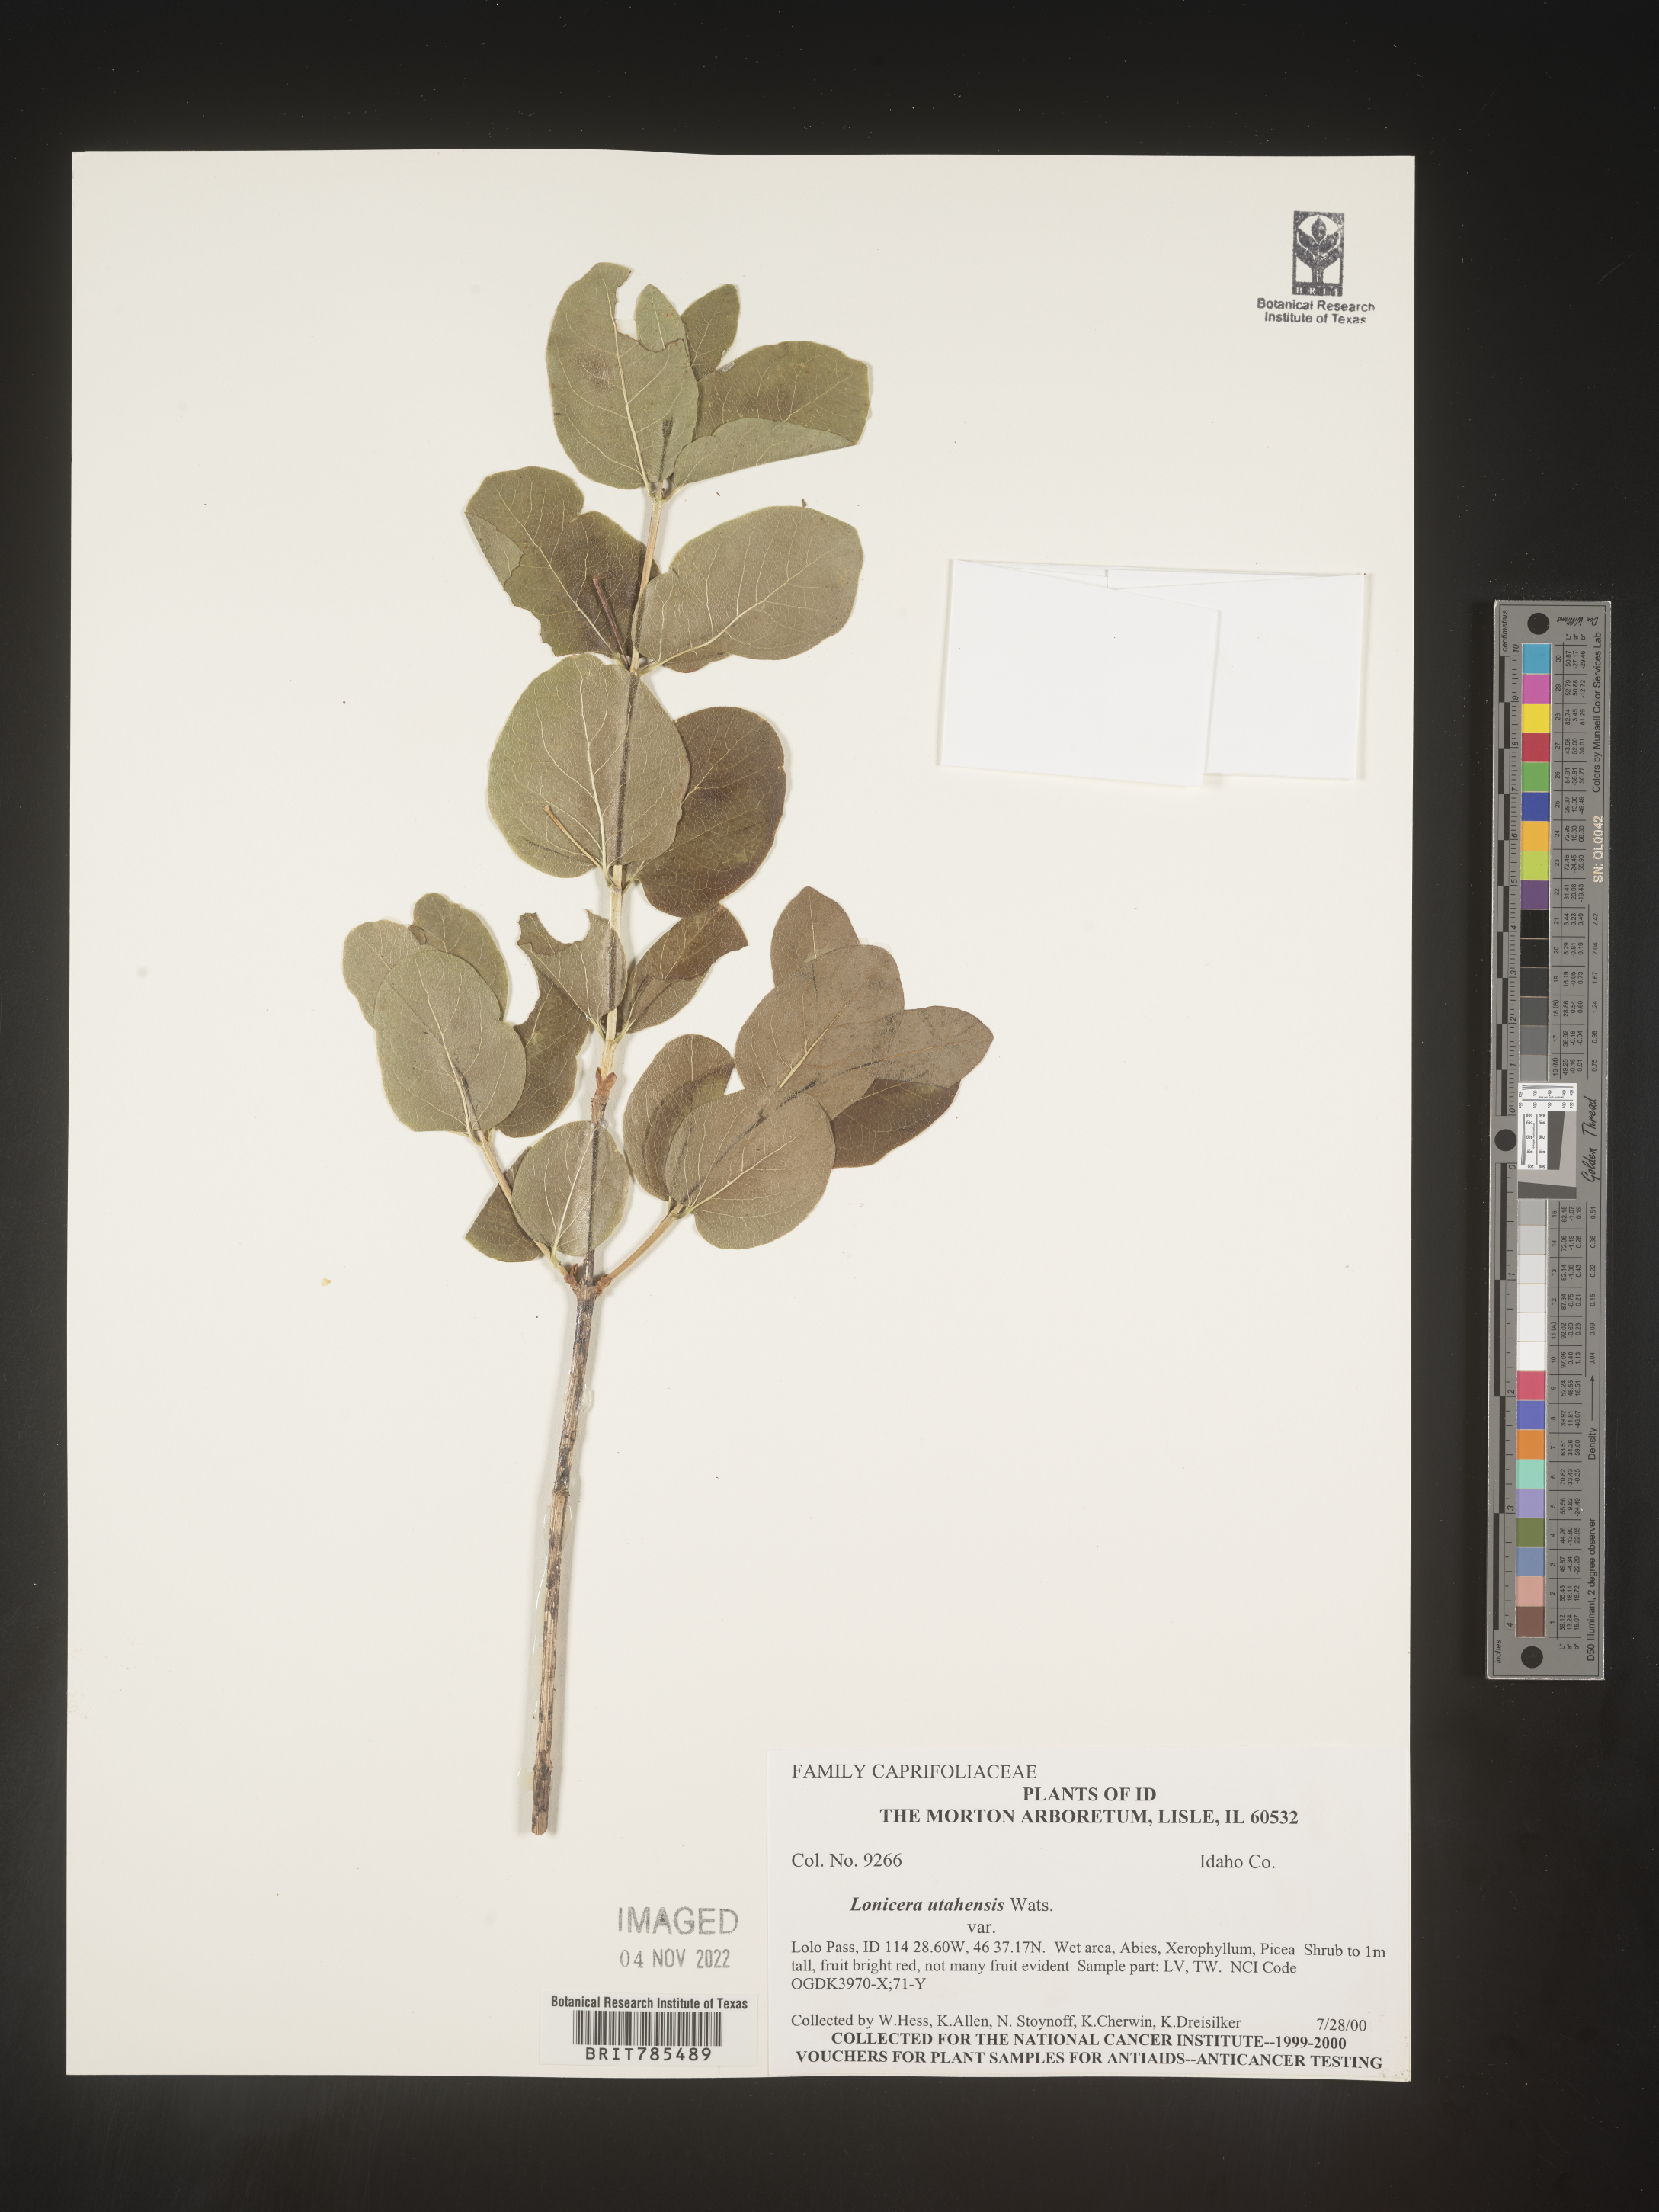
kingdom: Plantae
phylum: Tracheophyta
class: Magnoliopsida
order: Dipsacales
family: Caprifoliaceae
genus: Lonicera
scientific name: Lonicera utahensis
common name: Utah honeysuckle
